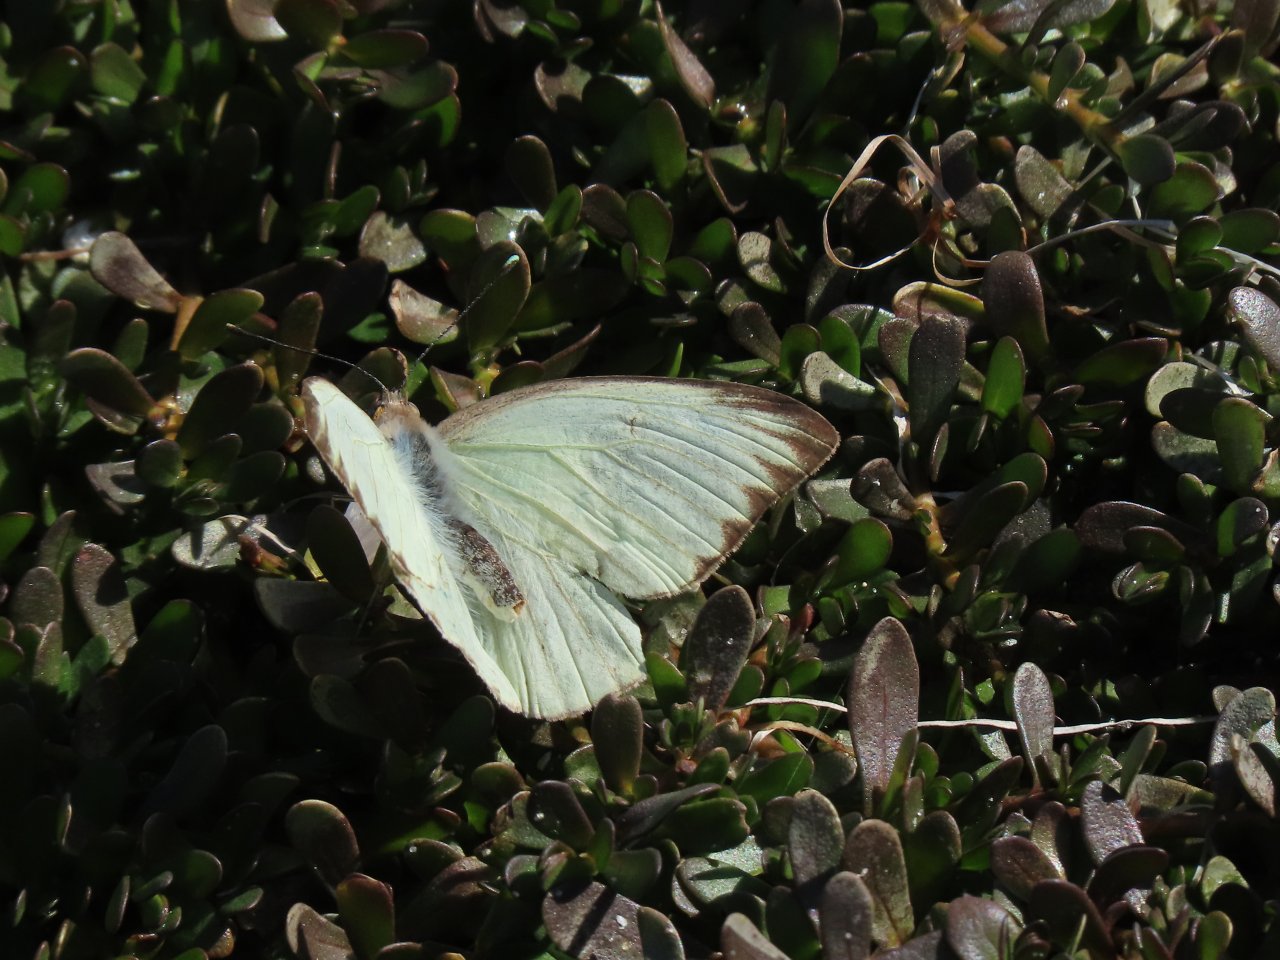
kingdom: Animalia
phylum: Arthropoda
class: Insecta
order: Lepidoptera
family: Pieridae
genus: Ascia
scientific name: Ascia monuste
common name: Great Southern White
